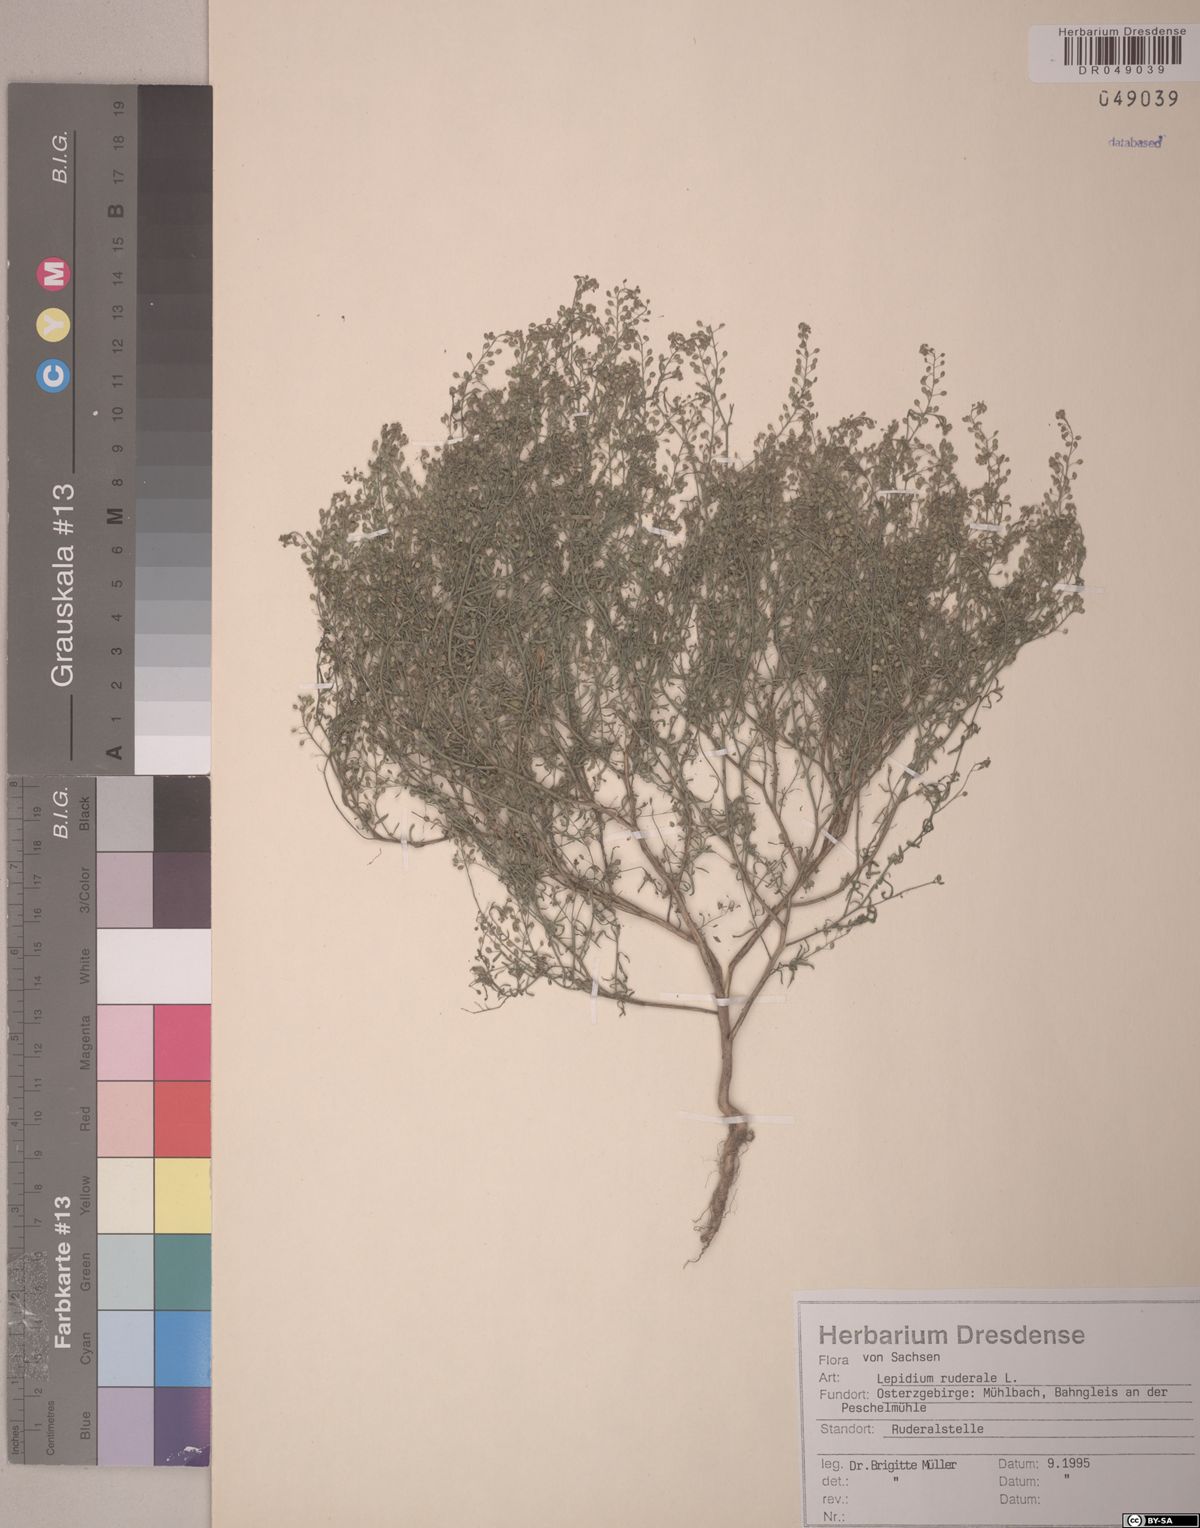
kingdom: Plantae
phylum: Tracheophyta
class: Magnoliopsida
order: Brassicales
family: Brassicaceae
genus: Lepidium
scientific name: Lepidium ruderale
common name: Narrow-leaved pepperwort
